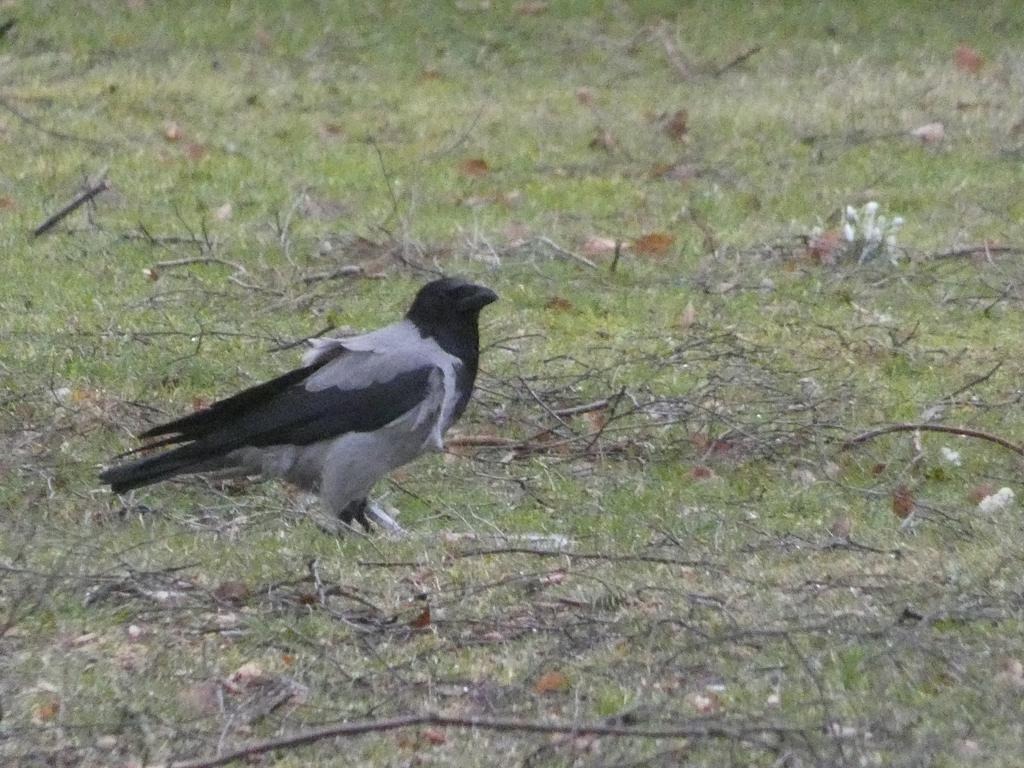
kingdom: Animalia
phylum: Chordata
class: Aves
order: Passeriformes
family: Corvidae
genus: Corvus
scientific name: Corvus cornix
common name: Gråkrage
